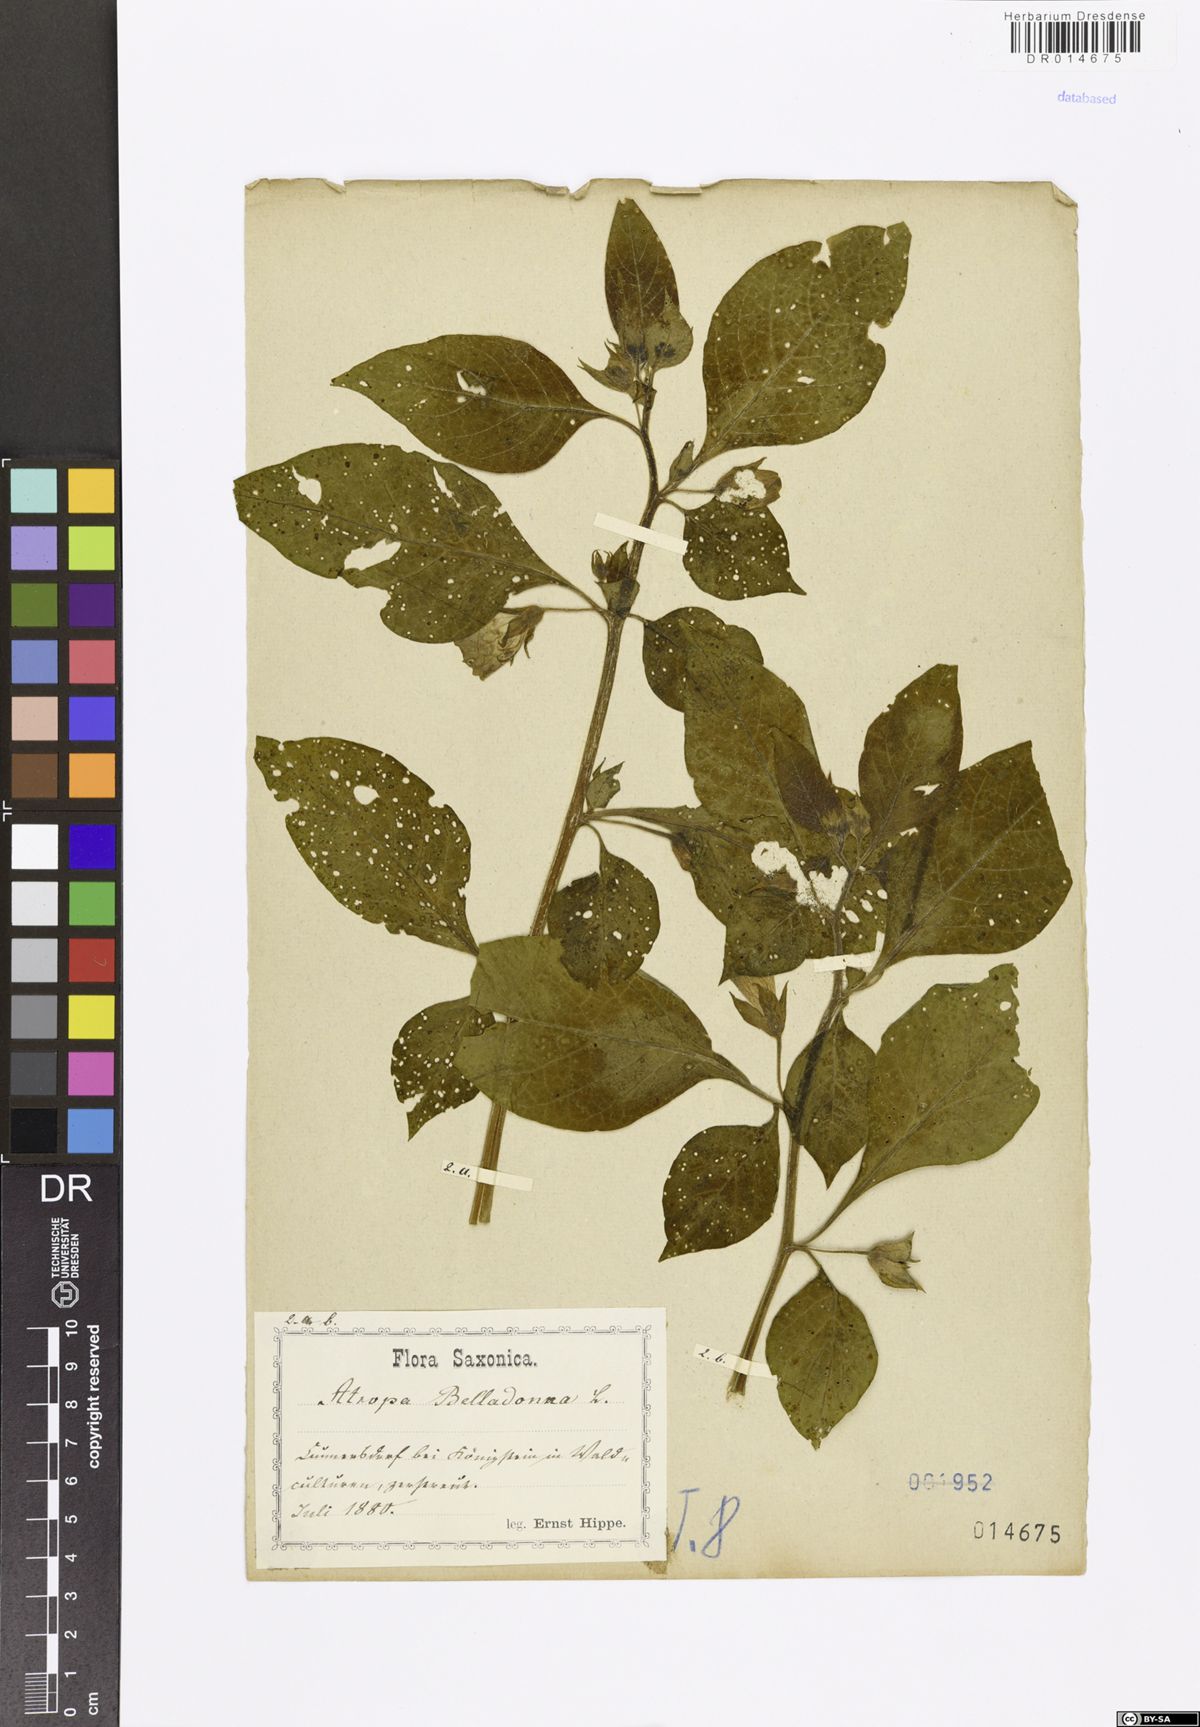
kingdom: Plantae
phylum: Tracheophyta
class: Magnoliopsida
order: Solanales
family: Solanaceae
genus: Atropa
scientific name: Atropa belladonna
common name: Deadly nightshade
